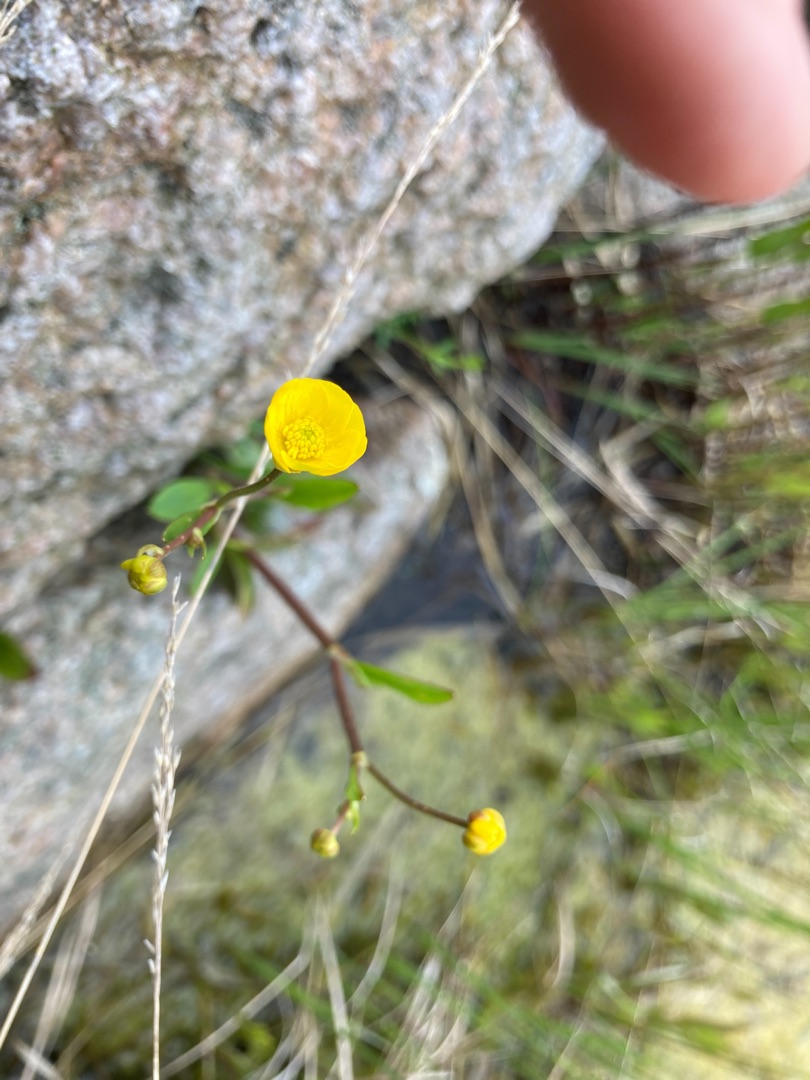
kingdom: Plantae
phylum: Tracheophyta
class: Magnoliopsida
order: Ranunculales
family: Ranunculaceae
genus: Ranunculus
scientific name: Ranunculus flammula
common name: Kær-ranunkel
